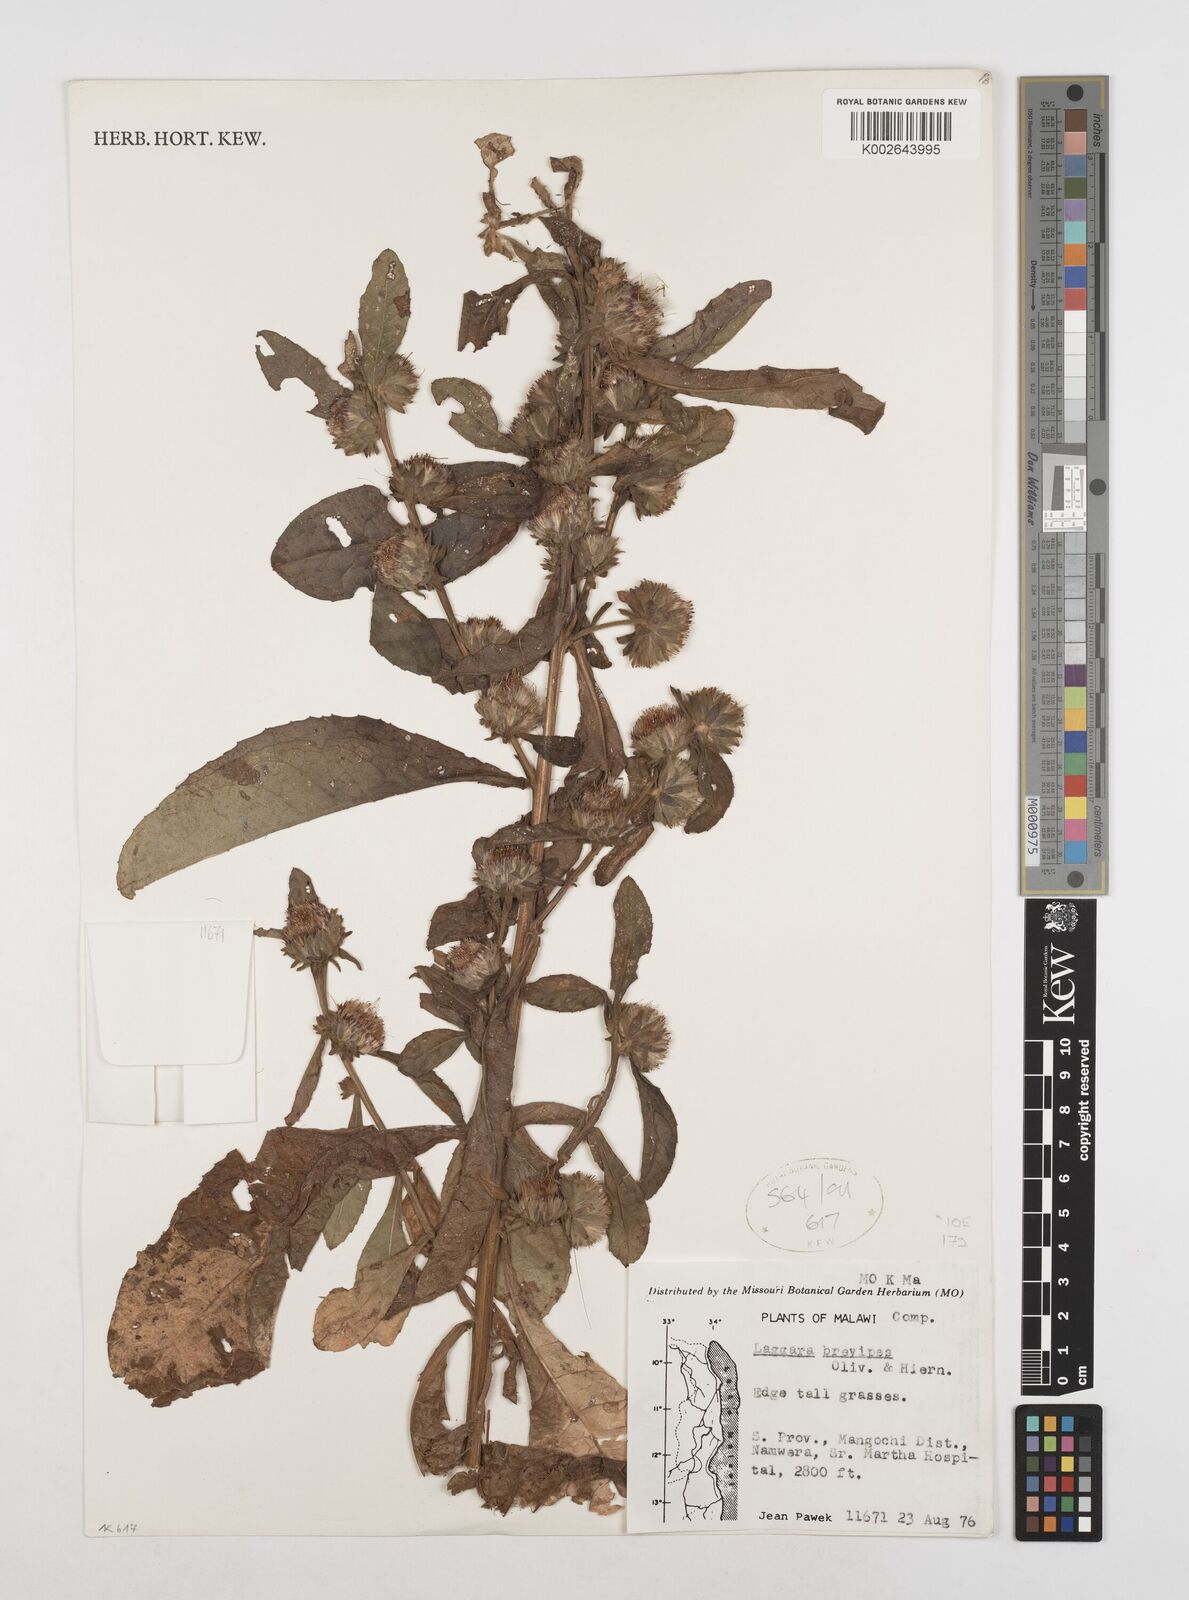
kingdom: Plantae
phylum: Tracheophyta
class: Magnoliopsida
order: Asterales
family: Asteraceae
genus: Laggera
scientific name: Laggera brevipes
